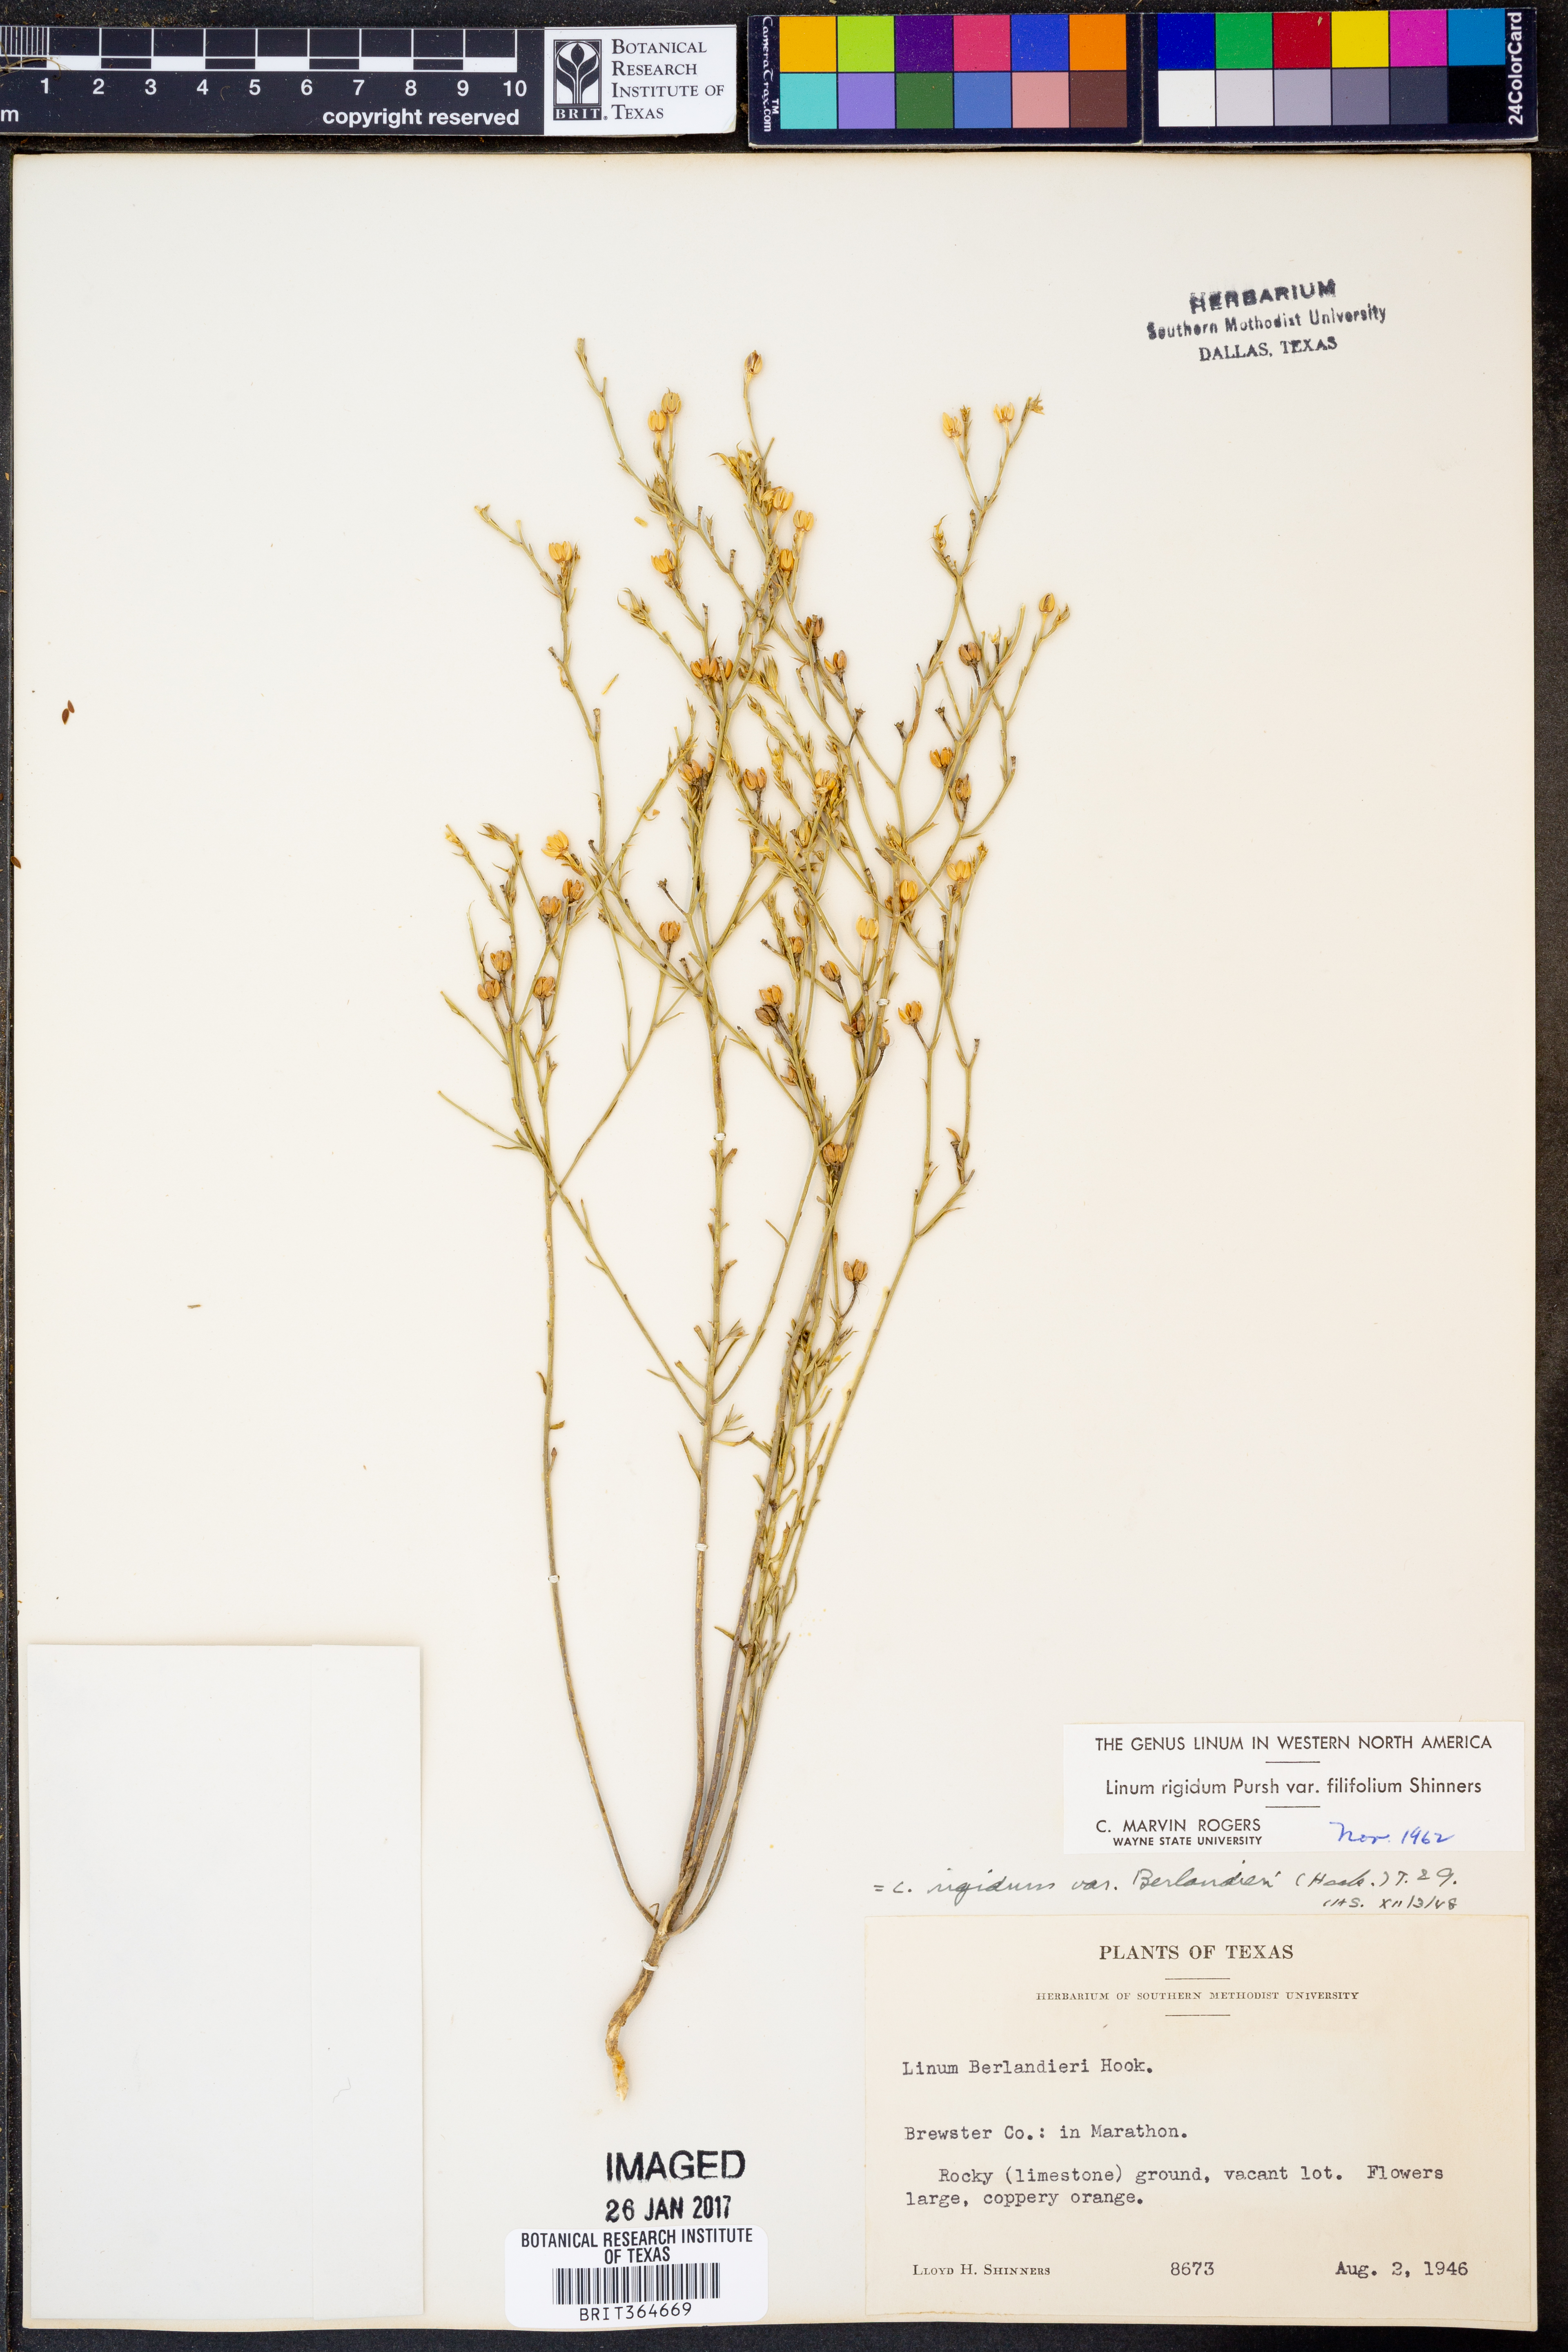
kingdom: Plantae
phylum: Tracheophyta
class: Magnoliopsida
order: Malpighiales
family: Linaceae
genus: Linum
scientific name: Linum berlandieri
